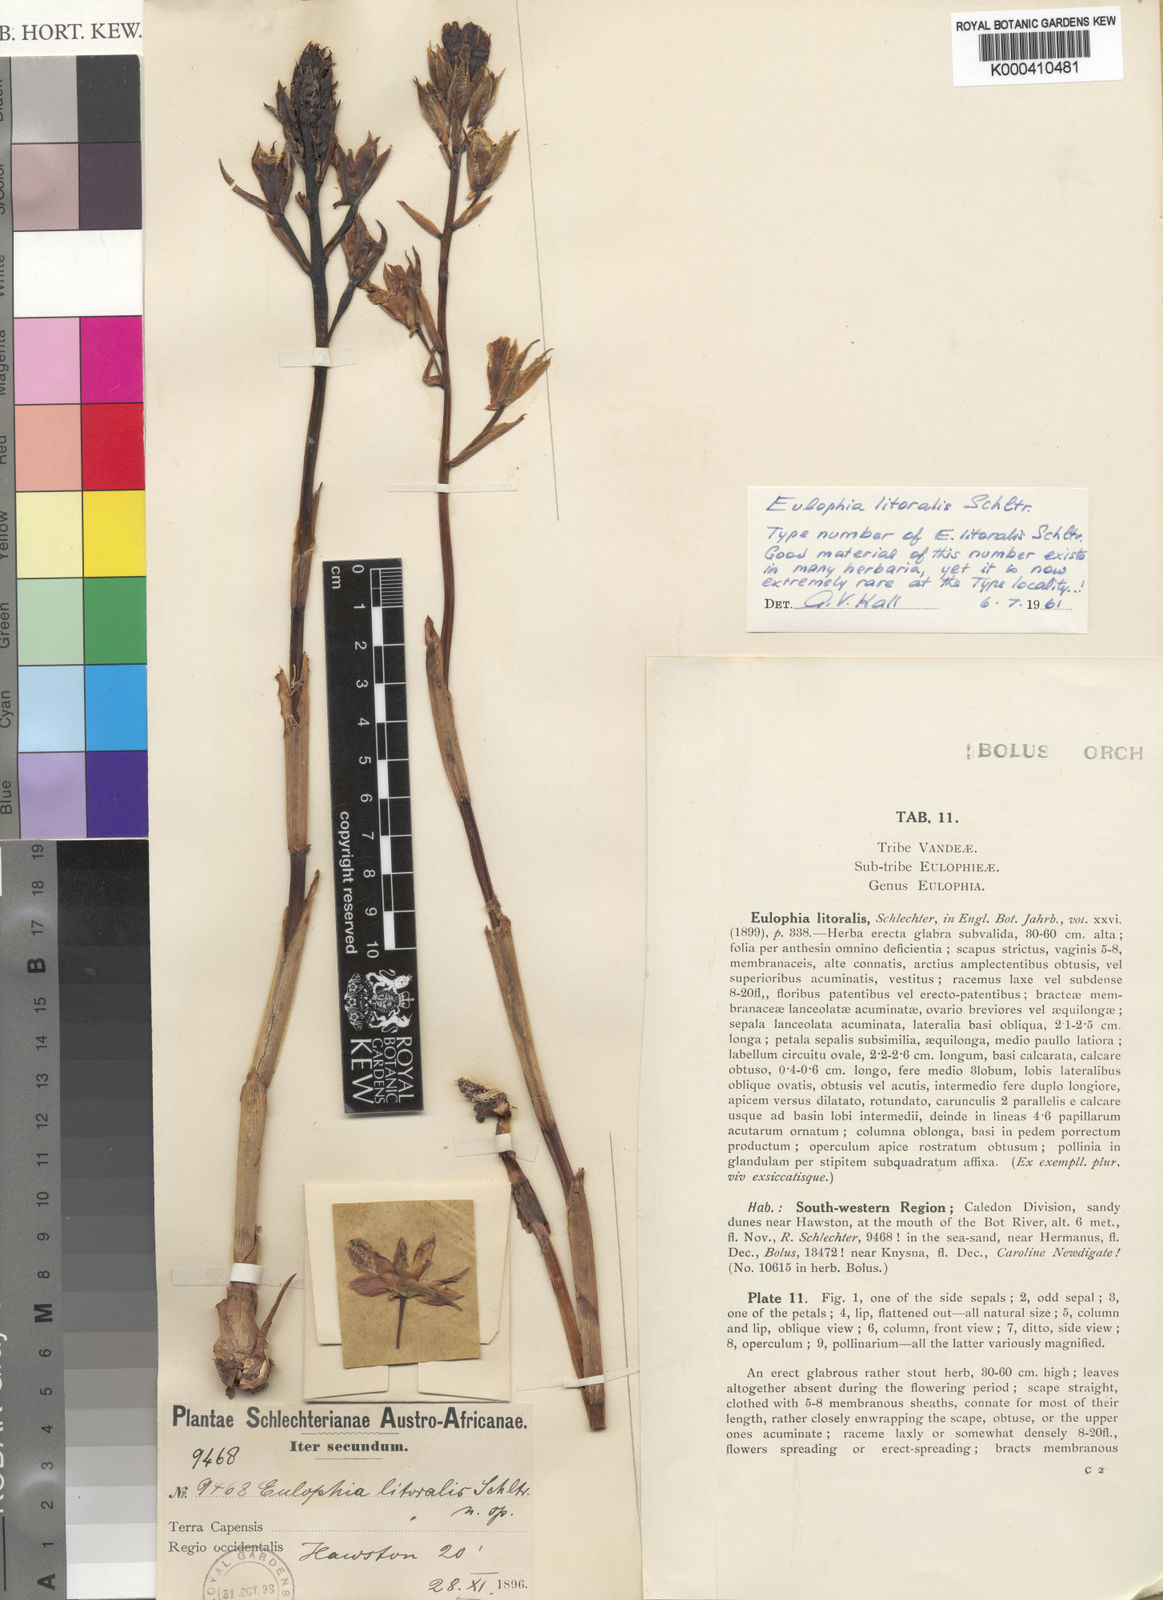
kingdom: Plantae
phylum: Tracheophyta
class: Liliopsida
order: Asparagales
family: Orchidaceae
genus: Eulophia
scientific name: Eulophia litoralis
